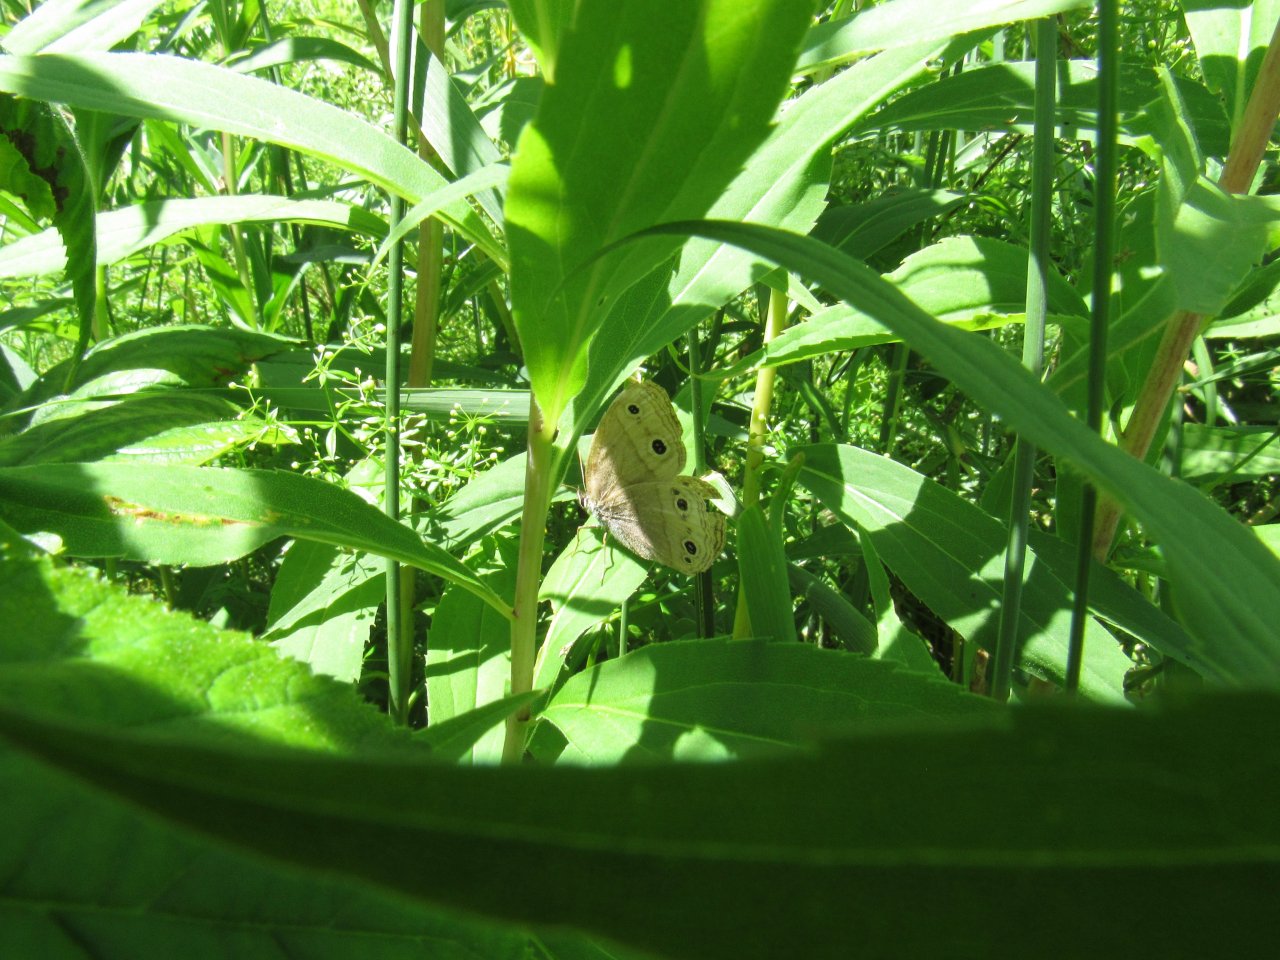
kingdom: Animalia
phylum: Arthropoda
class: Insecta
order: Lepidoptera
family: Nymphalidae
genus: Euptychia
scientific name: Euptychia cymela
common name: Little Wood Satyr
